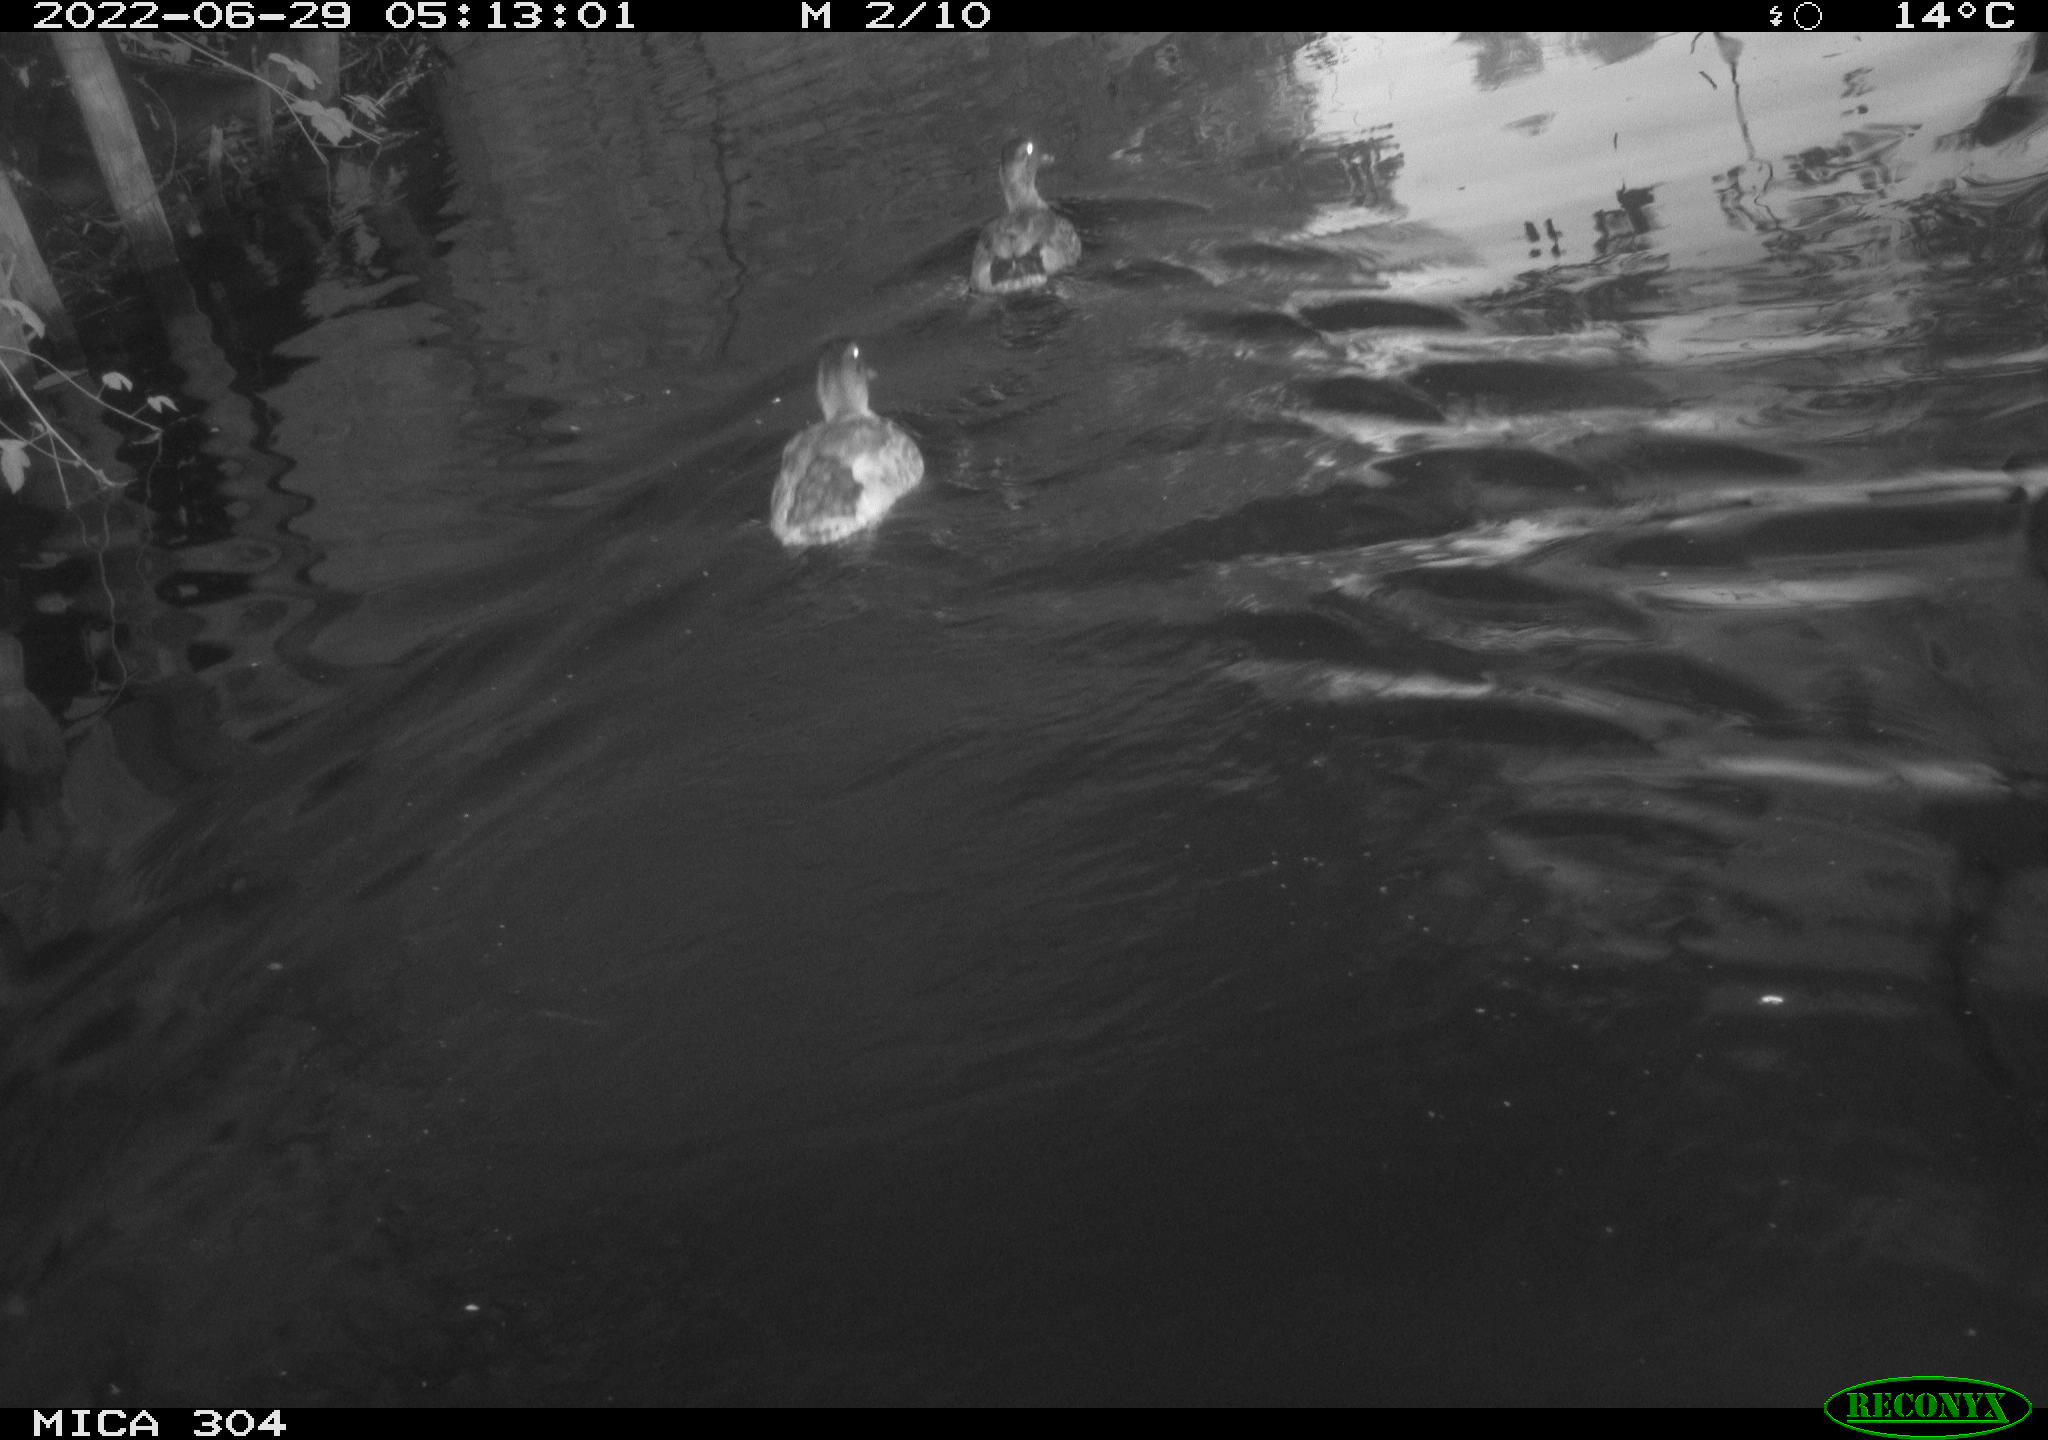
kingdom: Animalia
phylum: Chordata
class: Aves
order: Anseriformes
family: Anatidae
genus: Mareca
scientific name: Mareca strepera
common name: Gadwall
